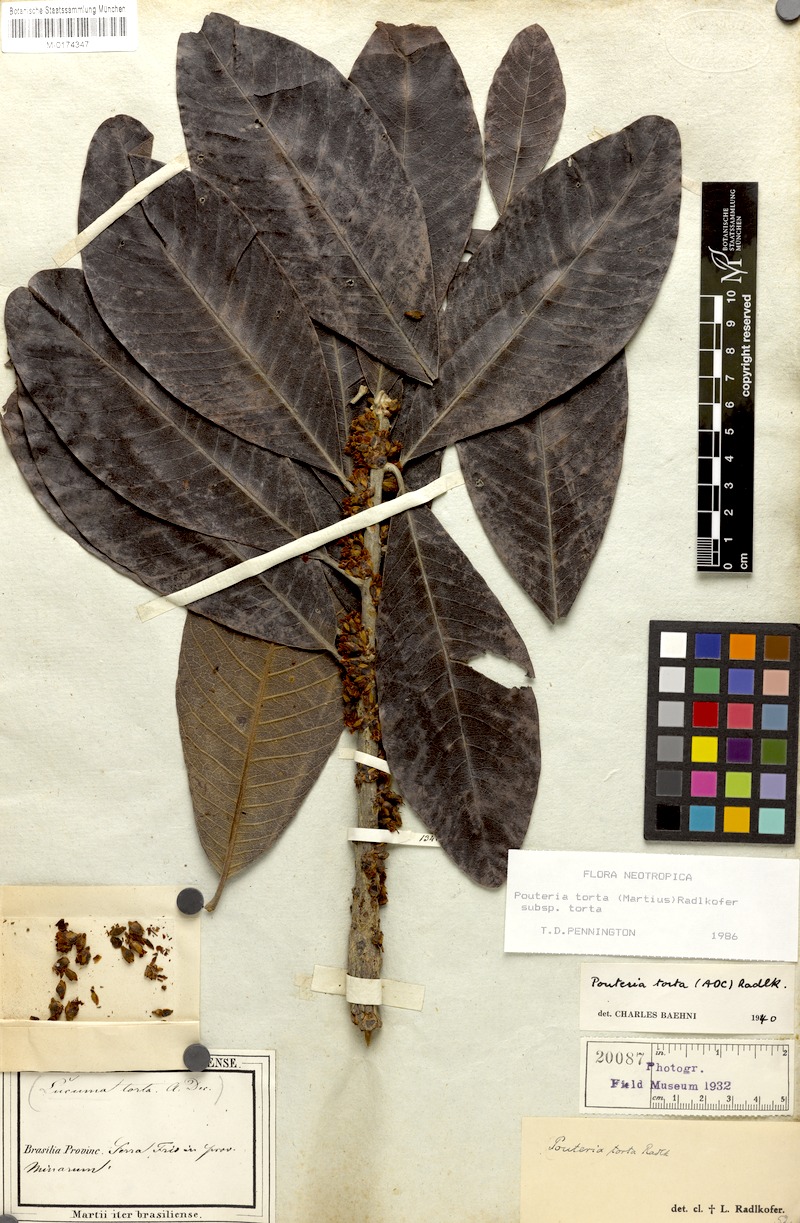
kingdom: Plantae
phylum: Tracheophyta
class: Magnoliopsida
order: Ericales
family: Sapotaceae
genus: Pouteria
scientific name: Pouteria torta
